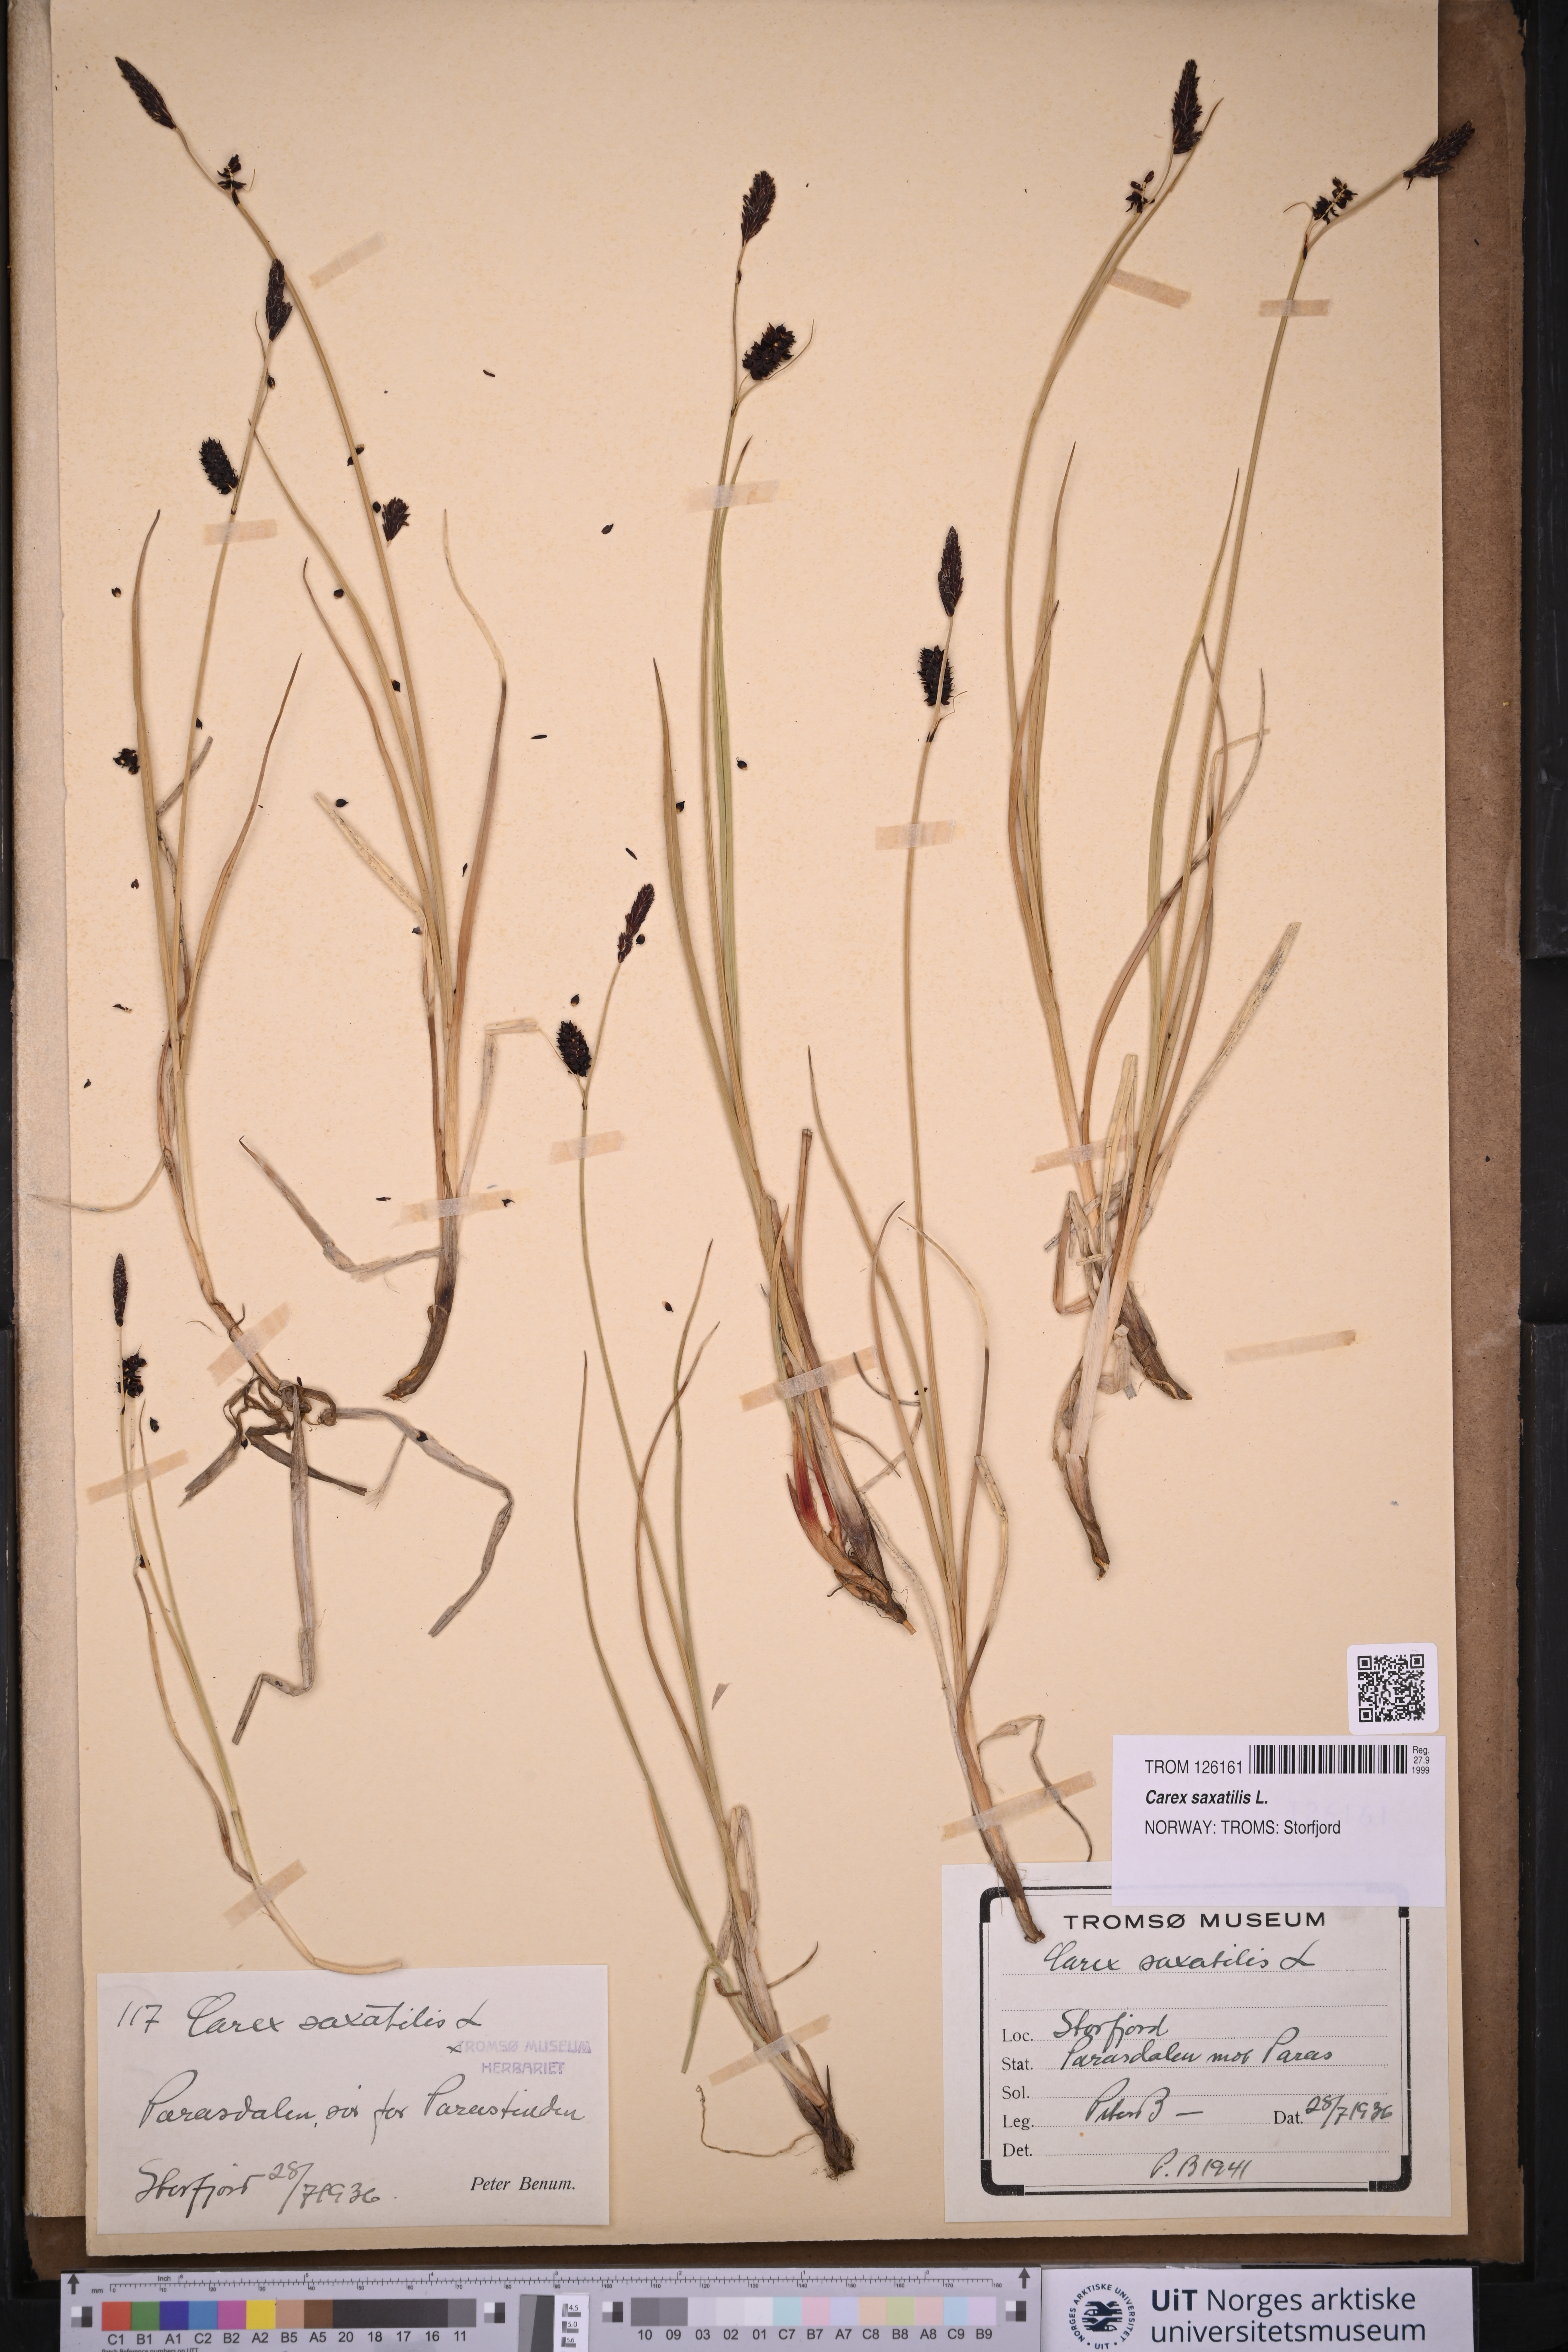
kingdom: Plantae
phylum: Tracheophyta
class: Liliopsida
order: Poales
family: Cyperaceae
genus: Carex
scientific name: Carex saxatilis
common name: Russet sedge
